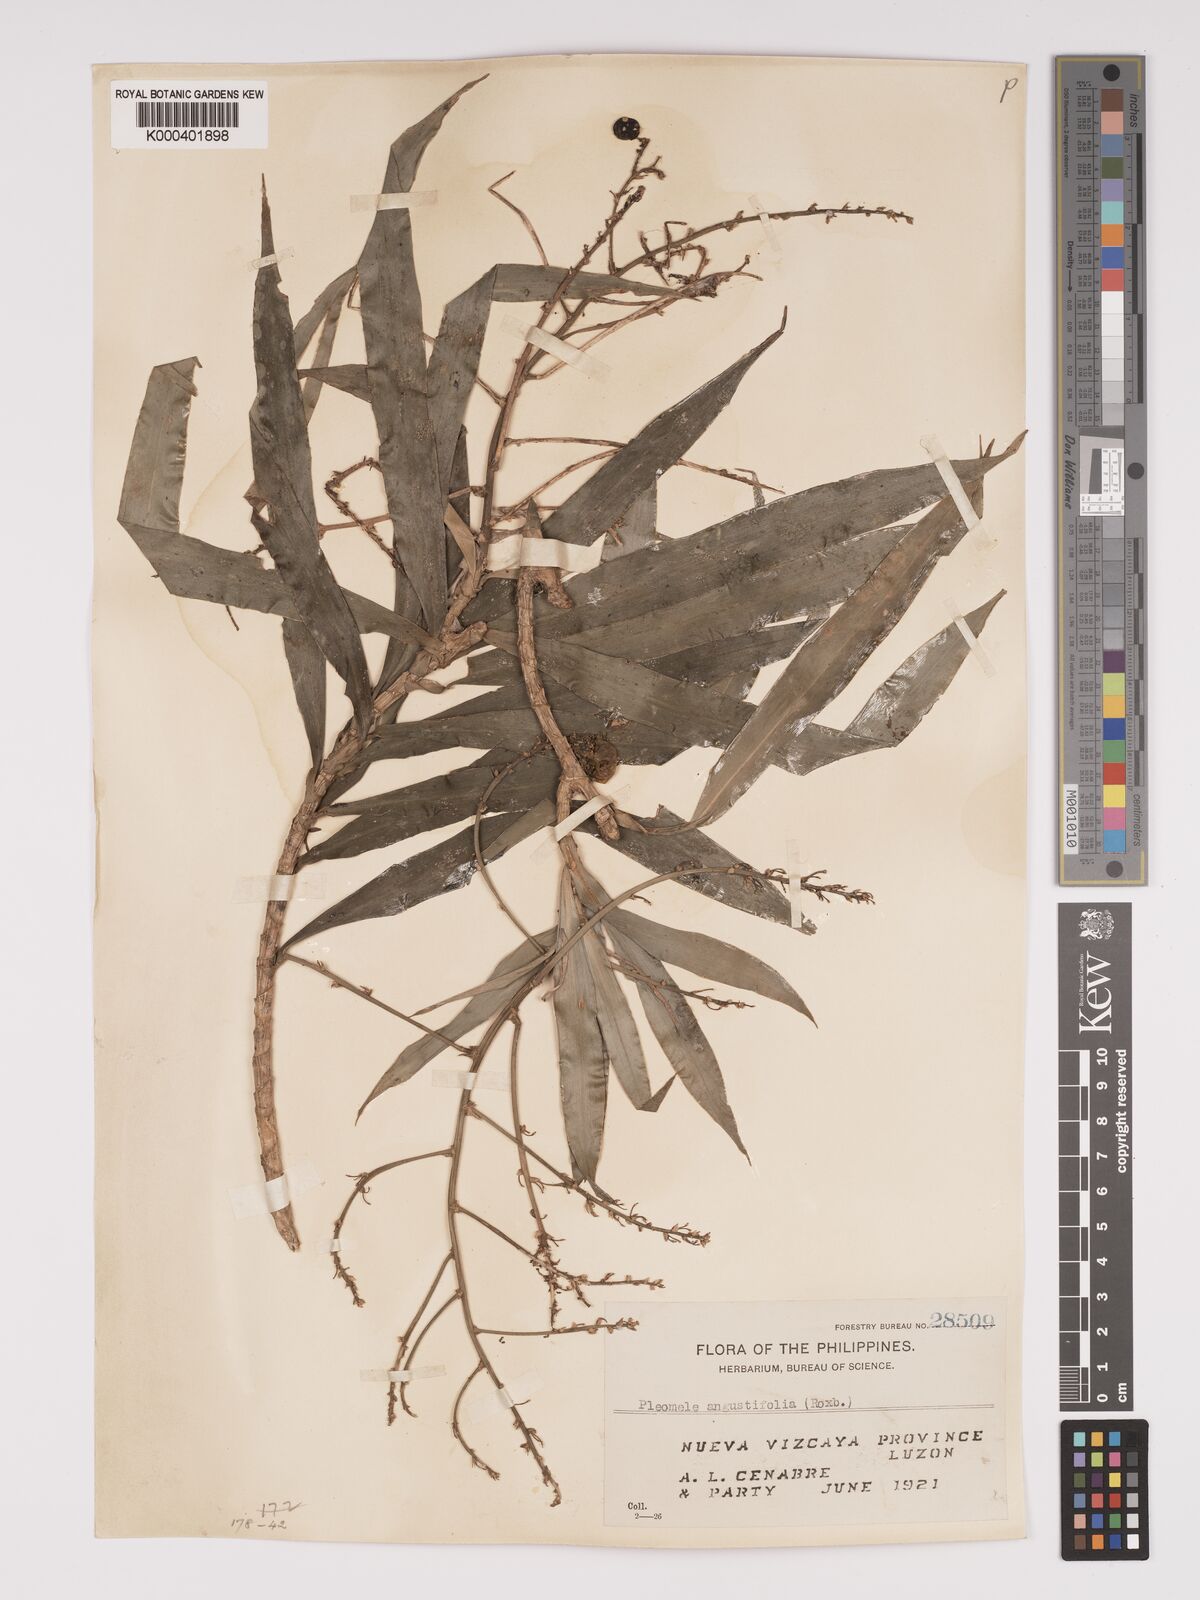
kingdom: Plantae
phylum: Tracheophyta
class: Liliopsida
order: Asparagales
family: Asparagaceae
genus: Dracaena
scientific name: Dracaena angustifolia
